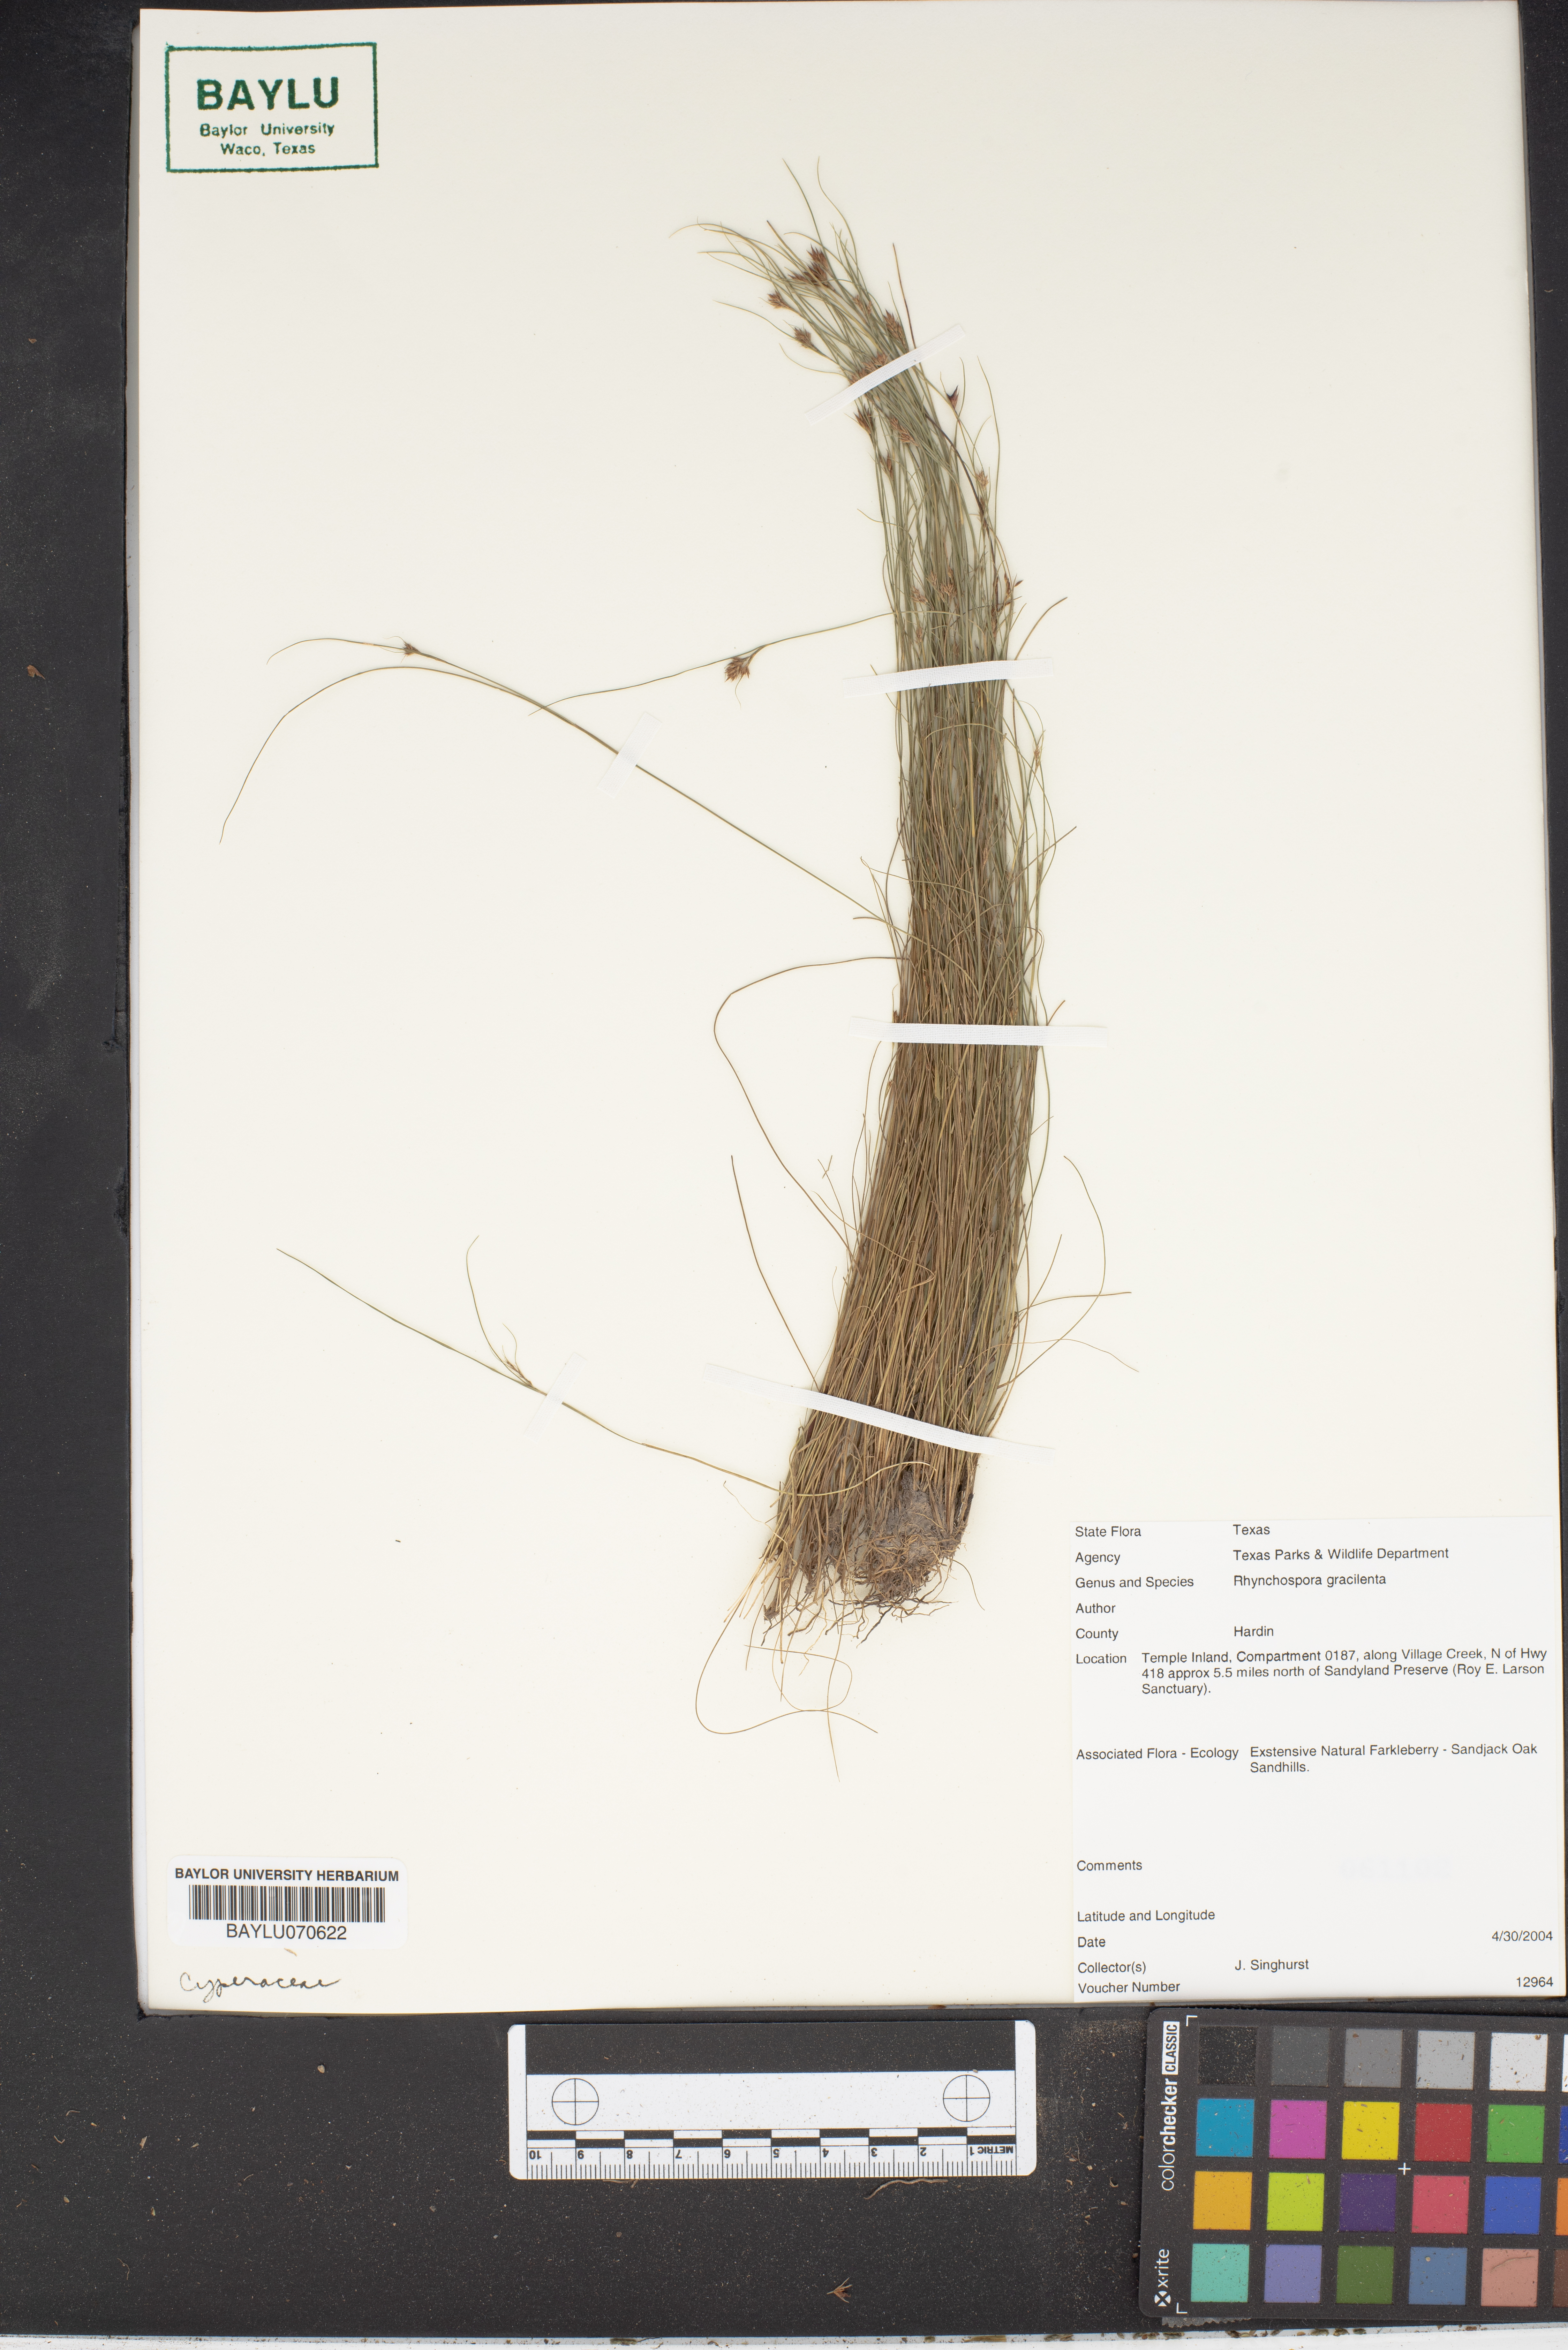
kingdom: Plantae
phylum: Tracheophyta
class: Liliopsida
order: Poales
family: Cyperaceae
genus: Rhynchospora
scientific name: Rhynchospora gracilenta
